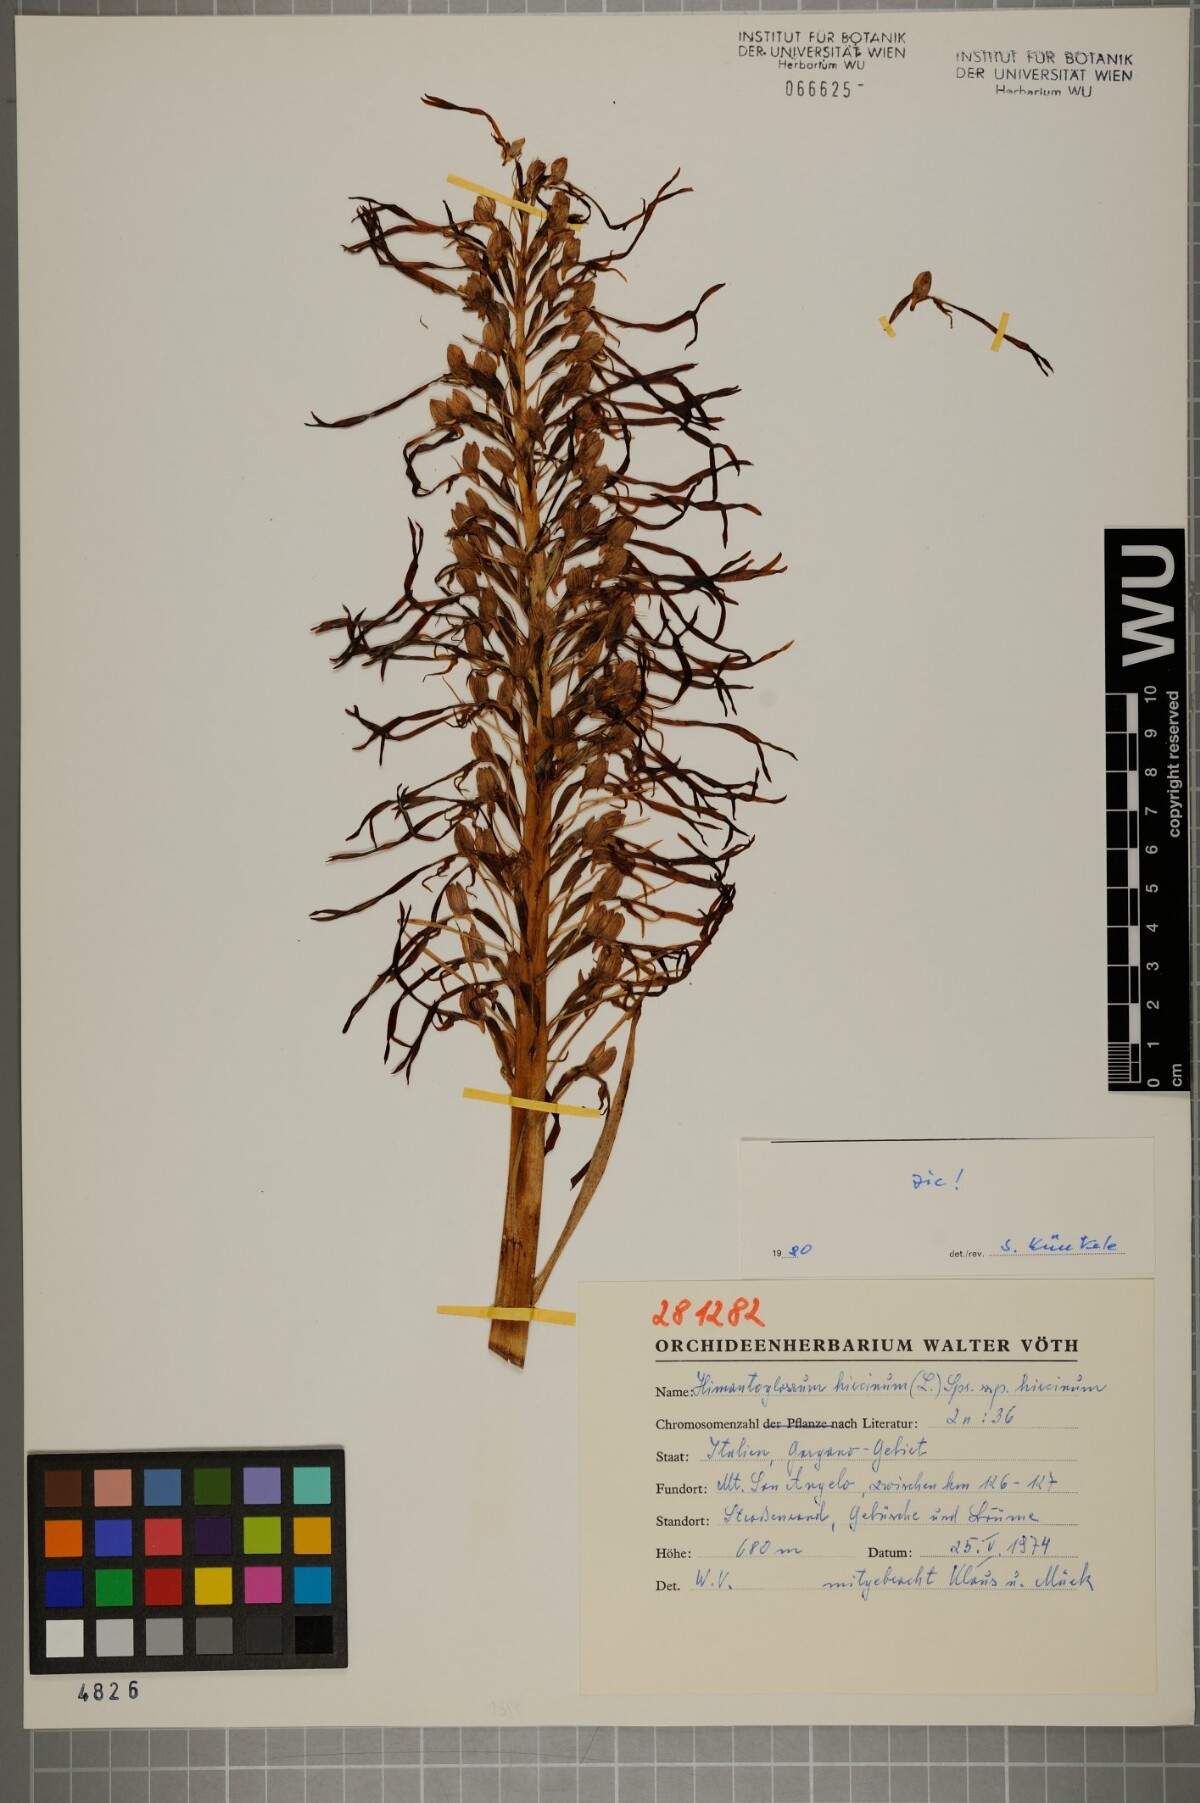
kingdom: Plantae
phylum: Tracheophyta
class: Liliopsida
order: Asparagales
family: Orchidaceae
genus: Himantoglossum
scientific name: Himantoglossum hircinum
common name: Lizard orchid
